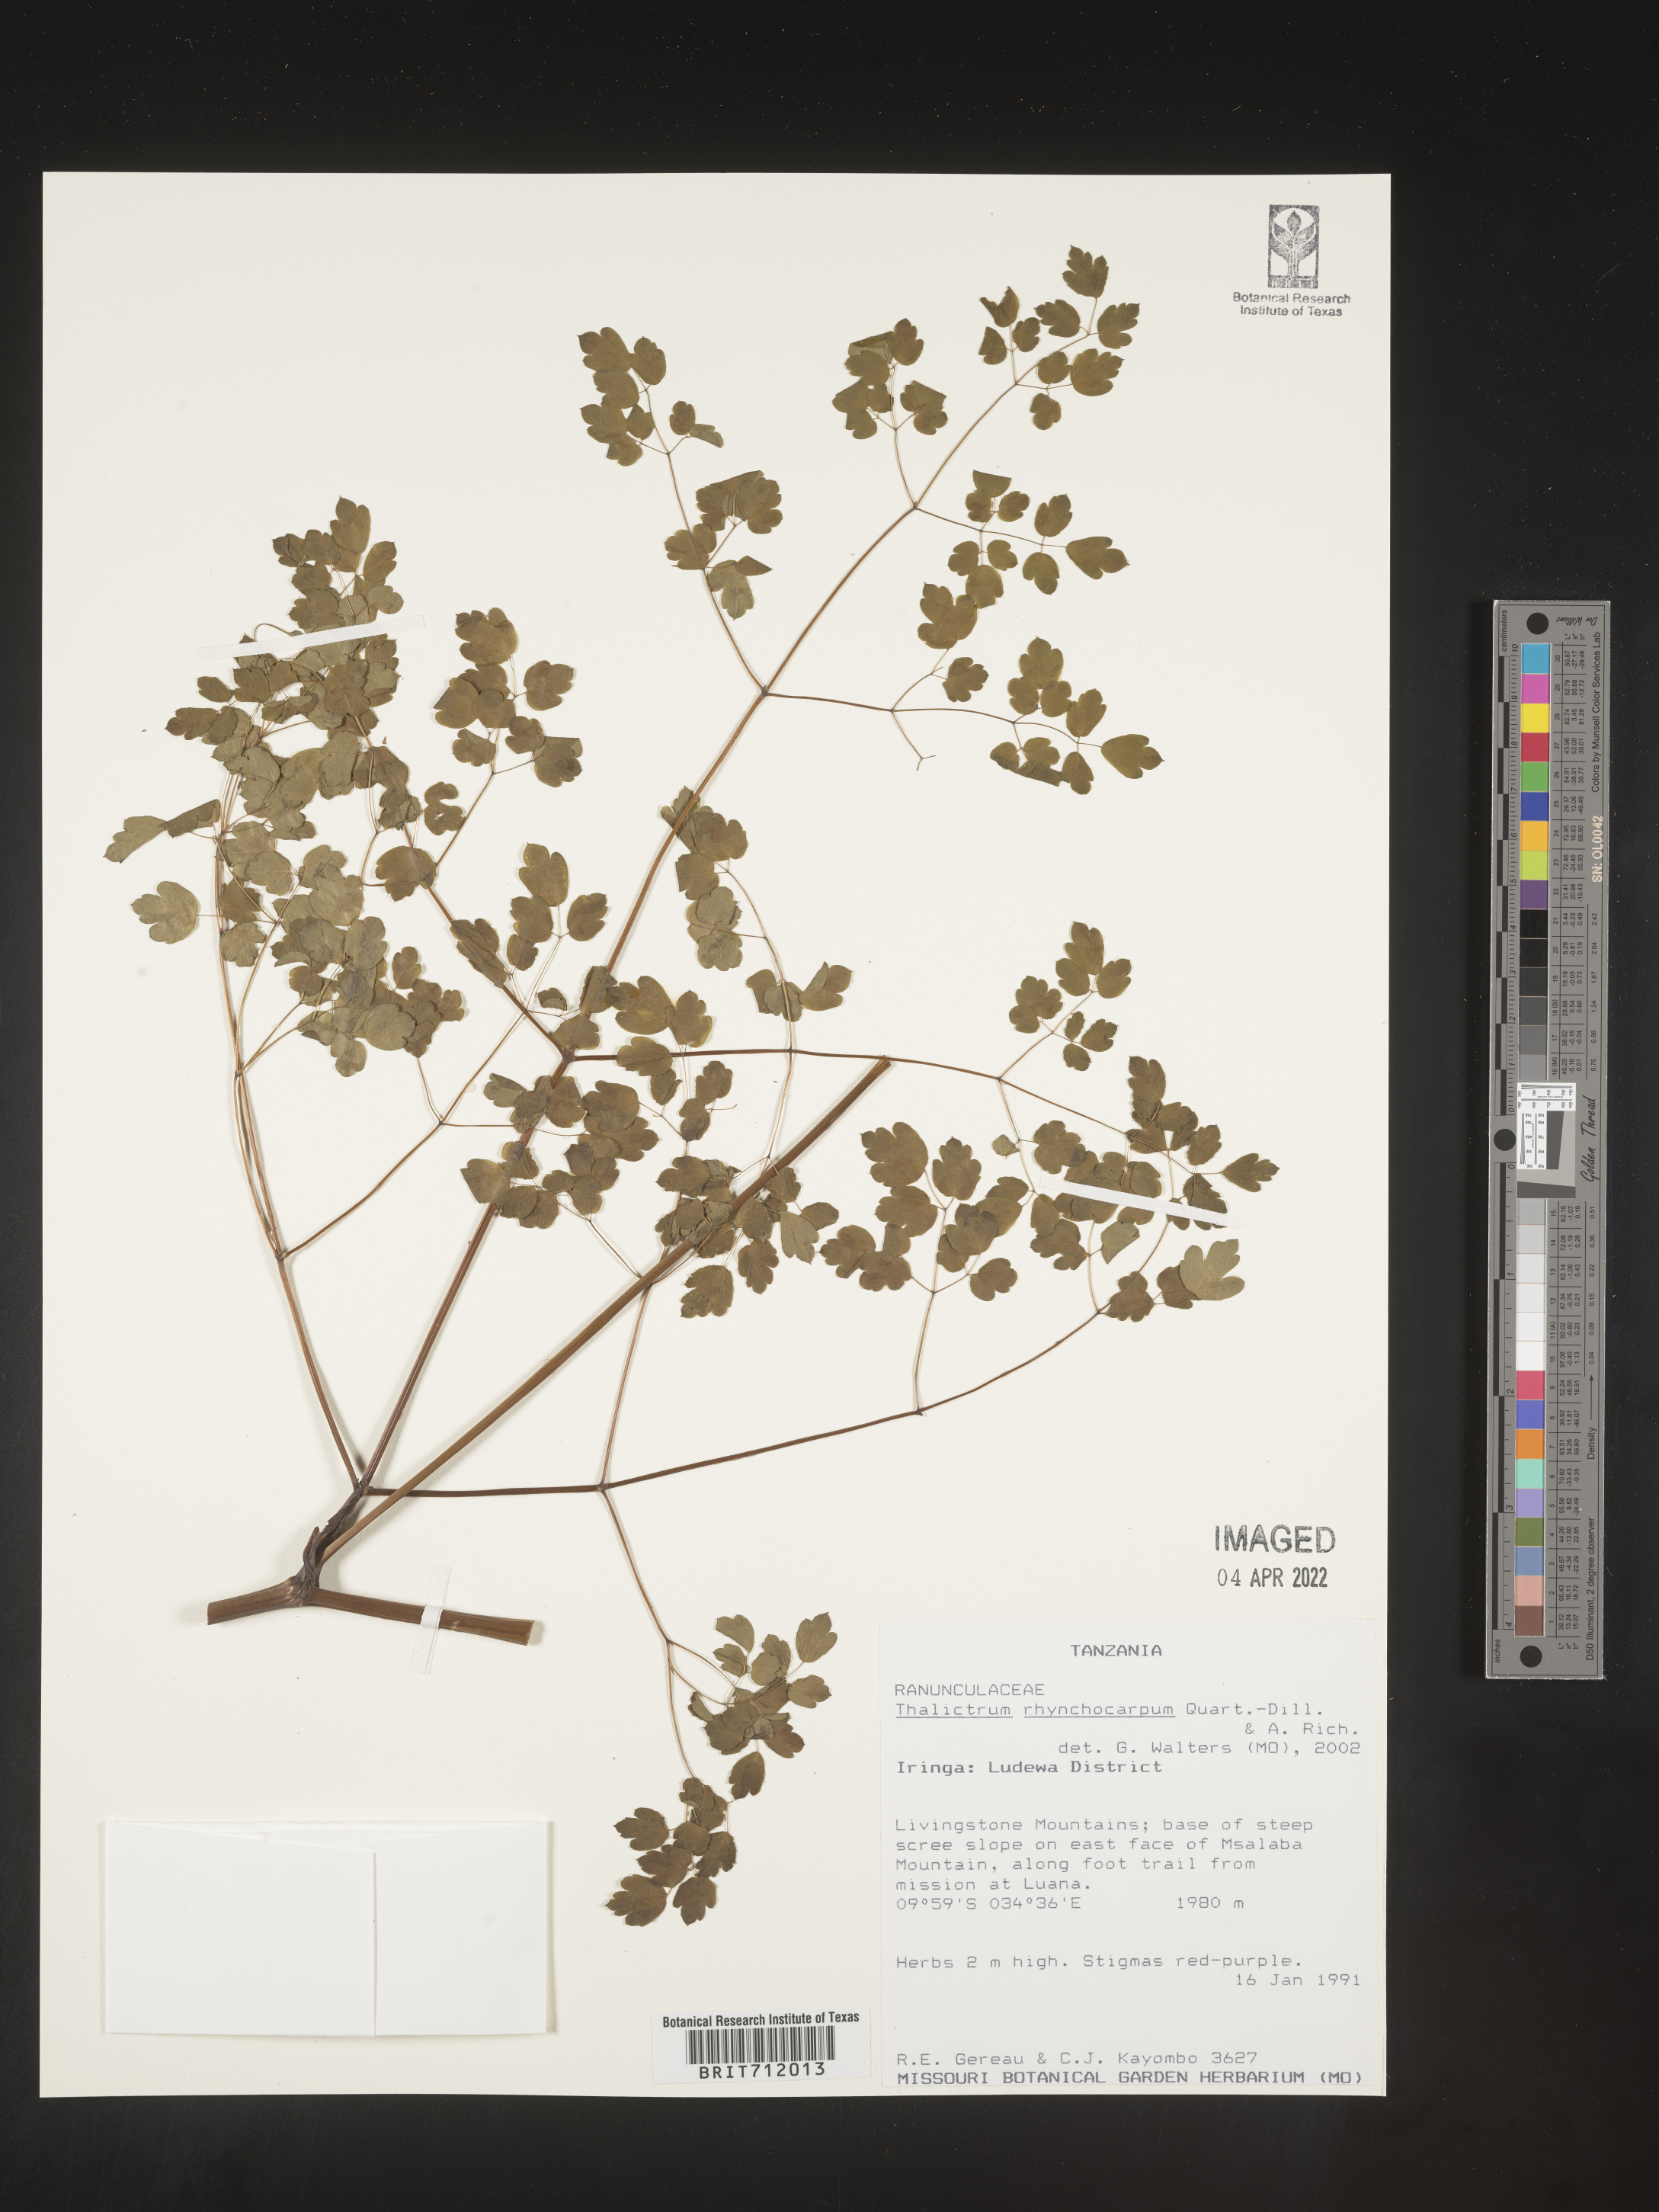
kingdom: Plantae
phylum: Tracheophyta
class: Magnoliopsida
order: Ranunculales
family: Ranunculaceae
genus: Thalictrum
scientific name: Thalictrum
